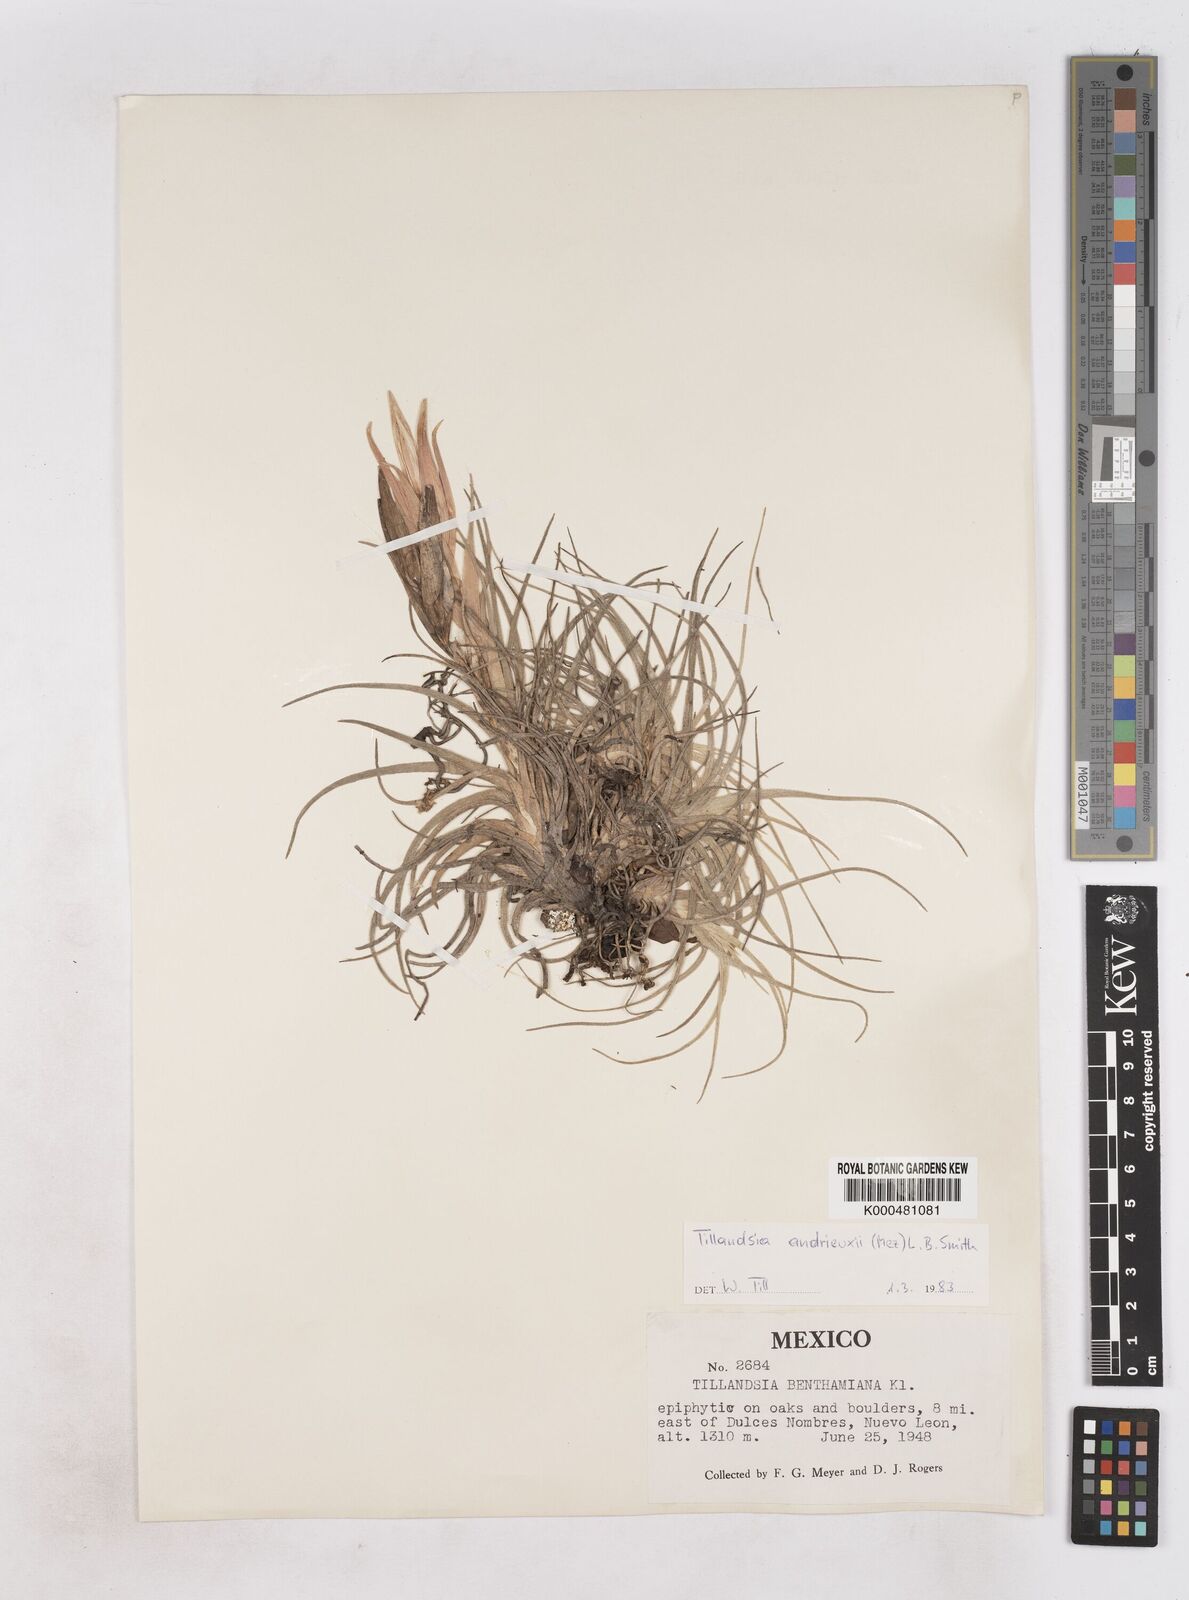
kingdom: Plantae
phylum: Tracheophyta
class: Liliopsida
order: Poales
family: Bromeliaceae
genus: Tillandsia
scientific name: Tillandsia andrieuxii
